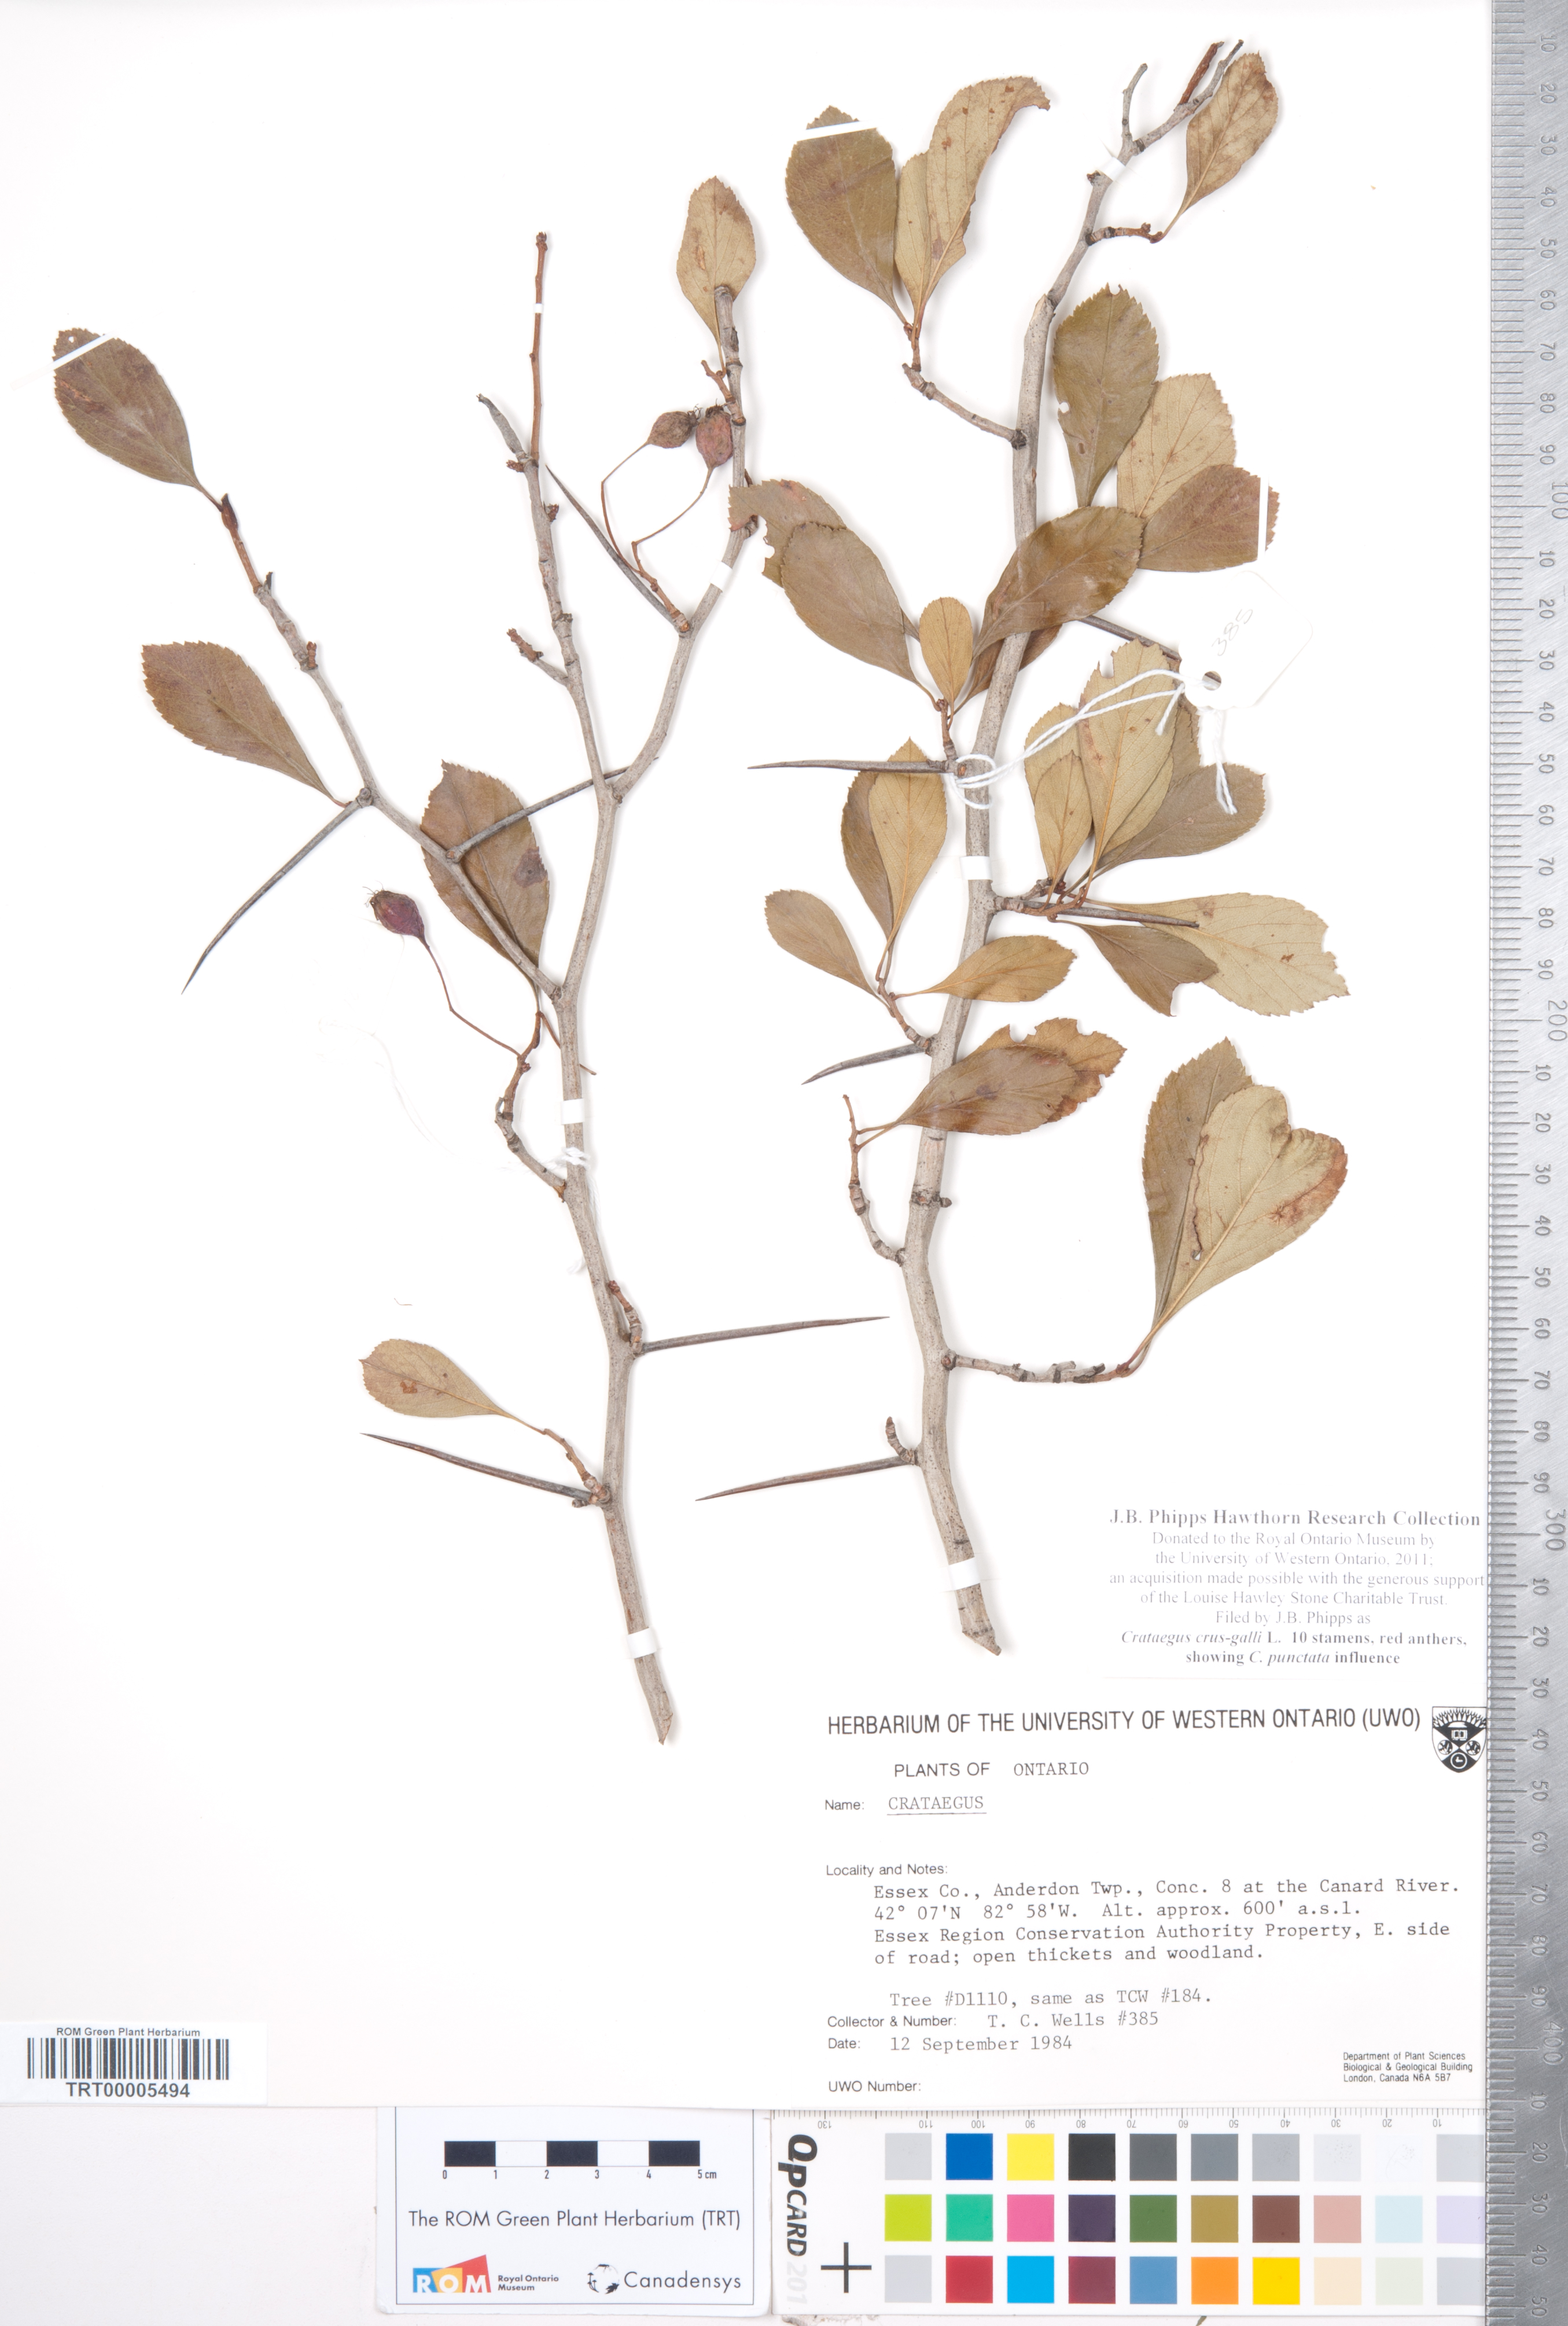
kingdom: Plantae
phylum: Tracheophyta
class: Magnoliopsida
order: Rosales
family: Rosaceae
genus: Crataegus
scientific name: Crataegus crus-galli
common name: Cockspurthorn
